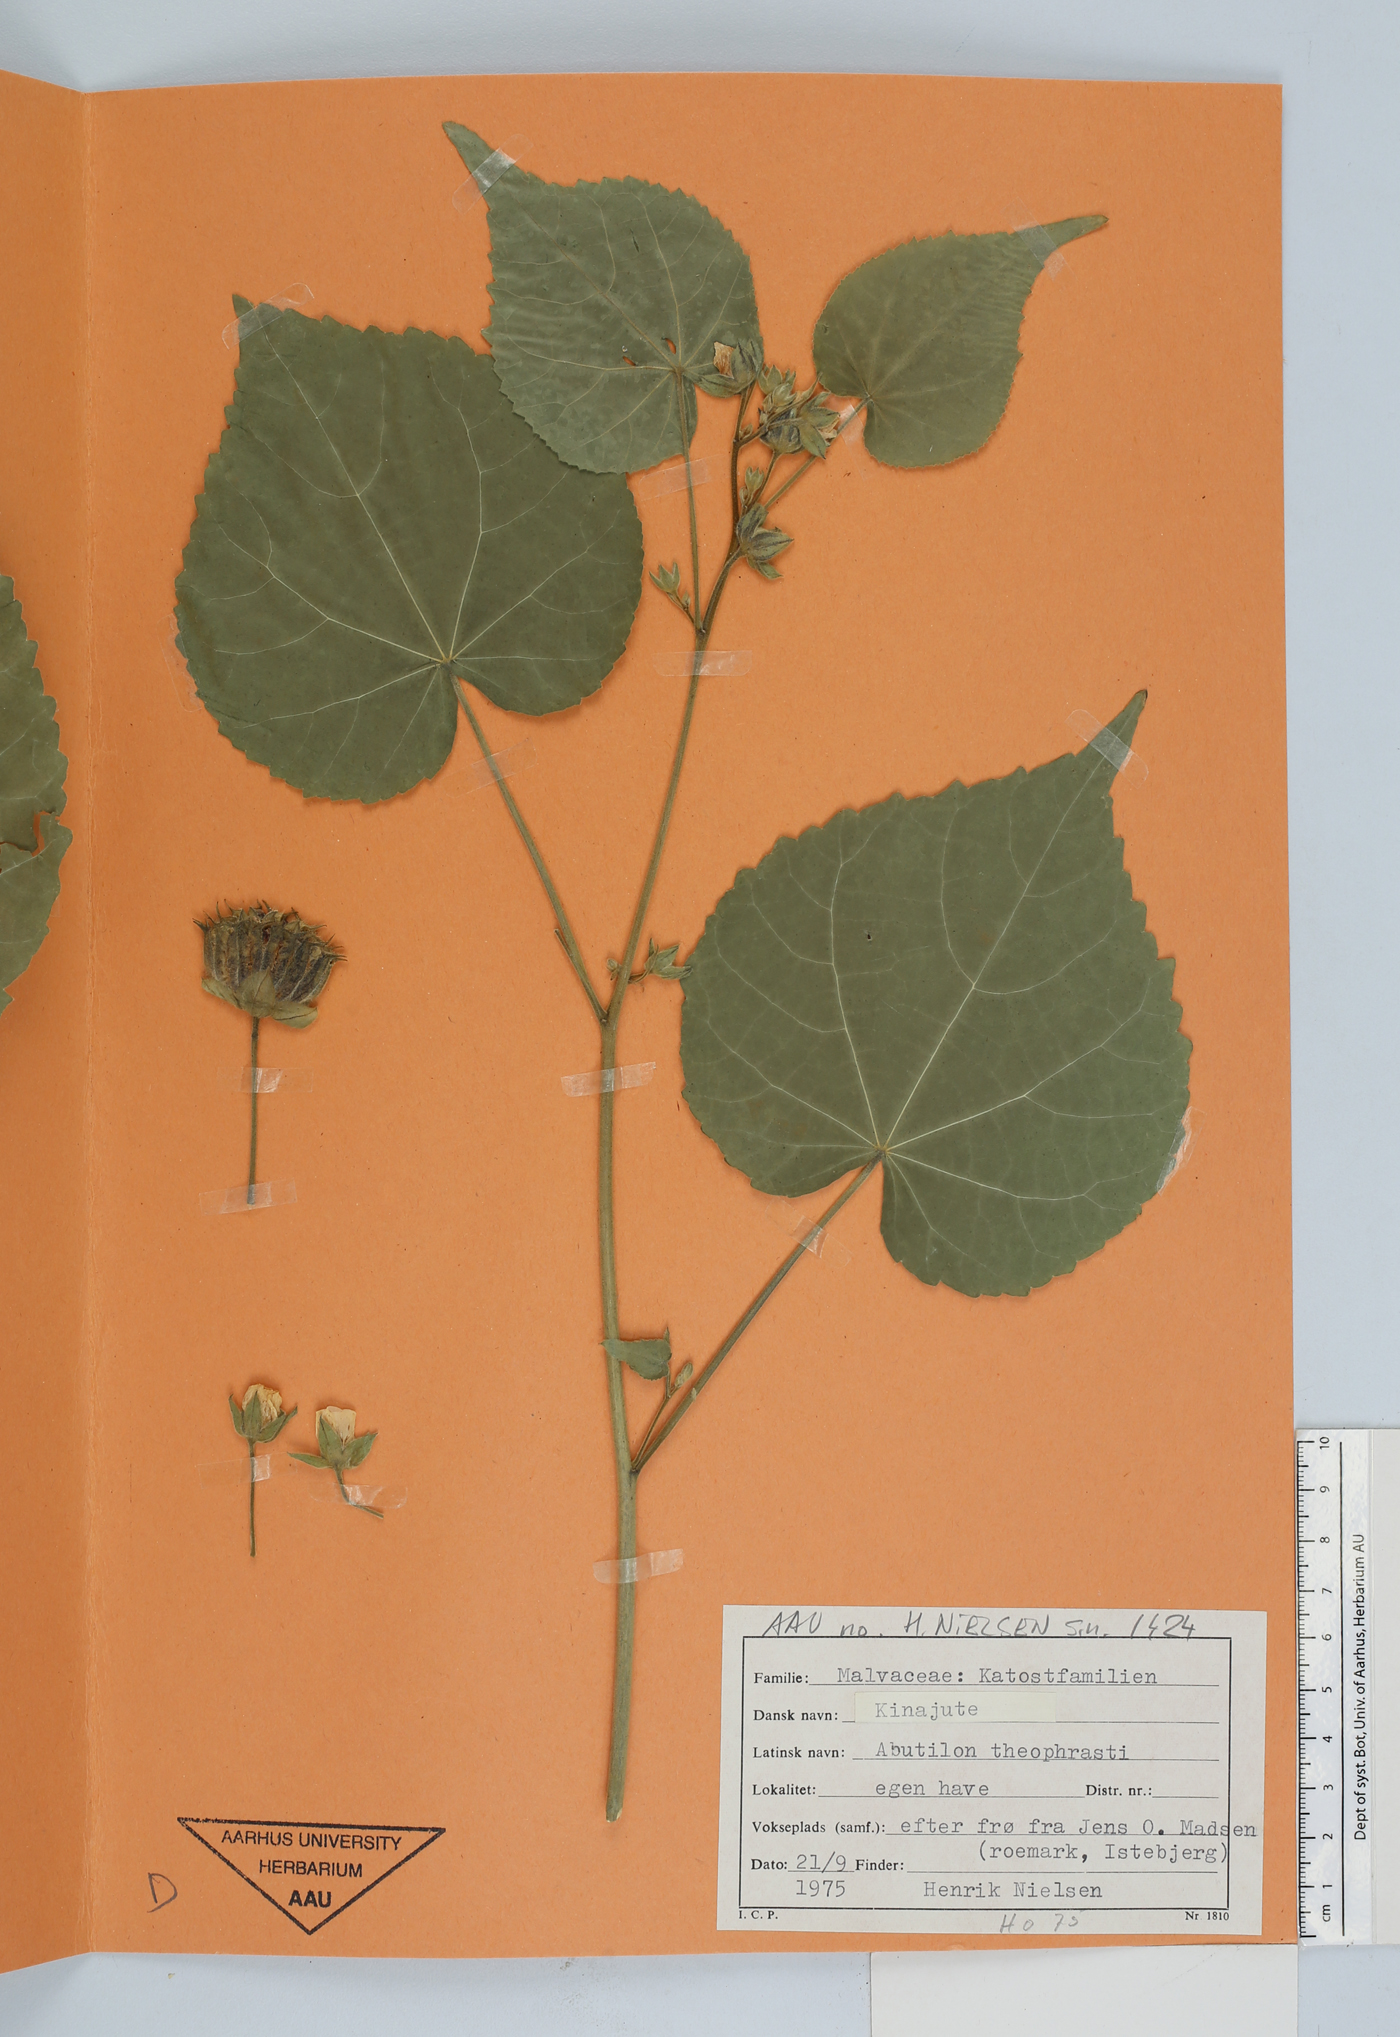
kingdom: Plantae
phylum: Tracheophyta
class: Magnoliopsida
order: Malvales
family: Malvaceae
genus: Abutilon
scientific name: Abutilon theophrasti
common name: Velvetleaf
